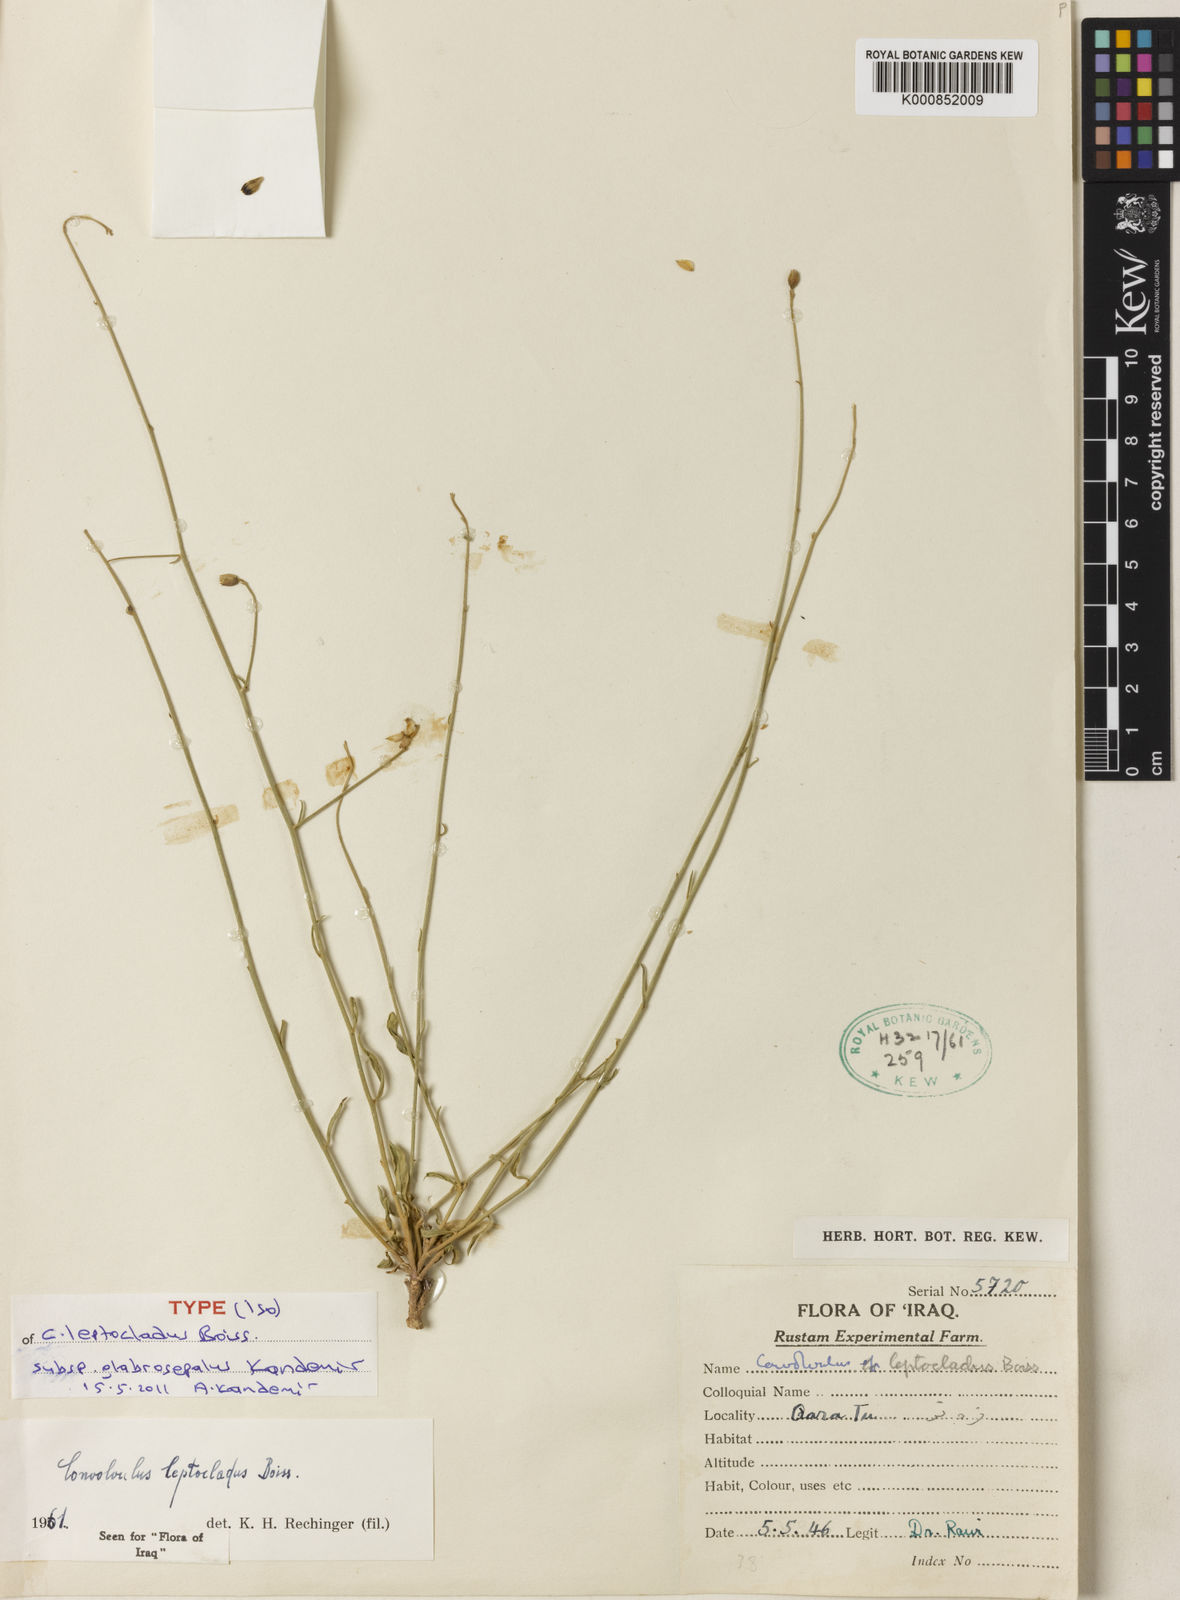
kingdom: Plantae
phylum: Tracheophyta
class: Magnoliopsida
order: Solanales
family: Convolvulaceae
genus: Convolvulus
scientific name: Convolvulus sarothrocladus
